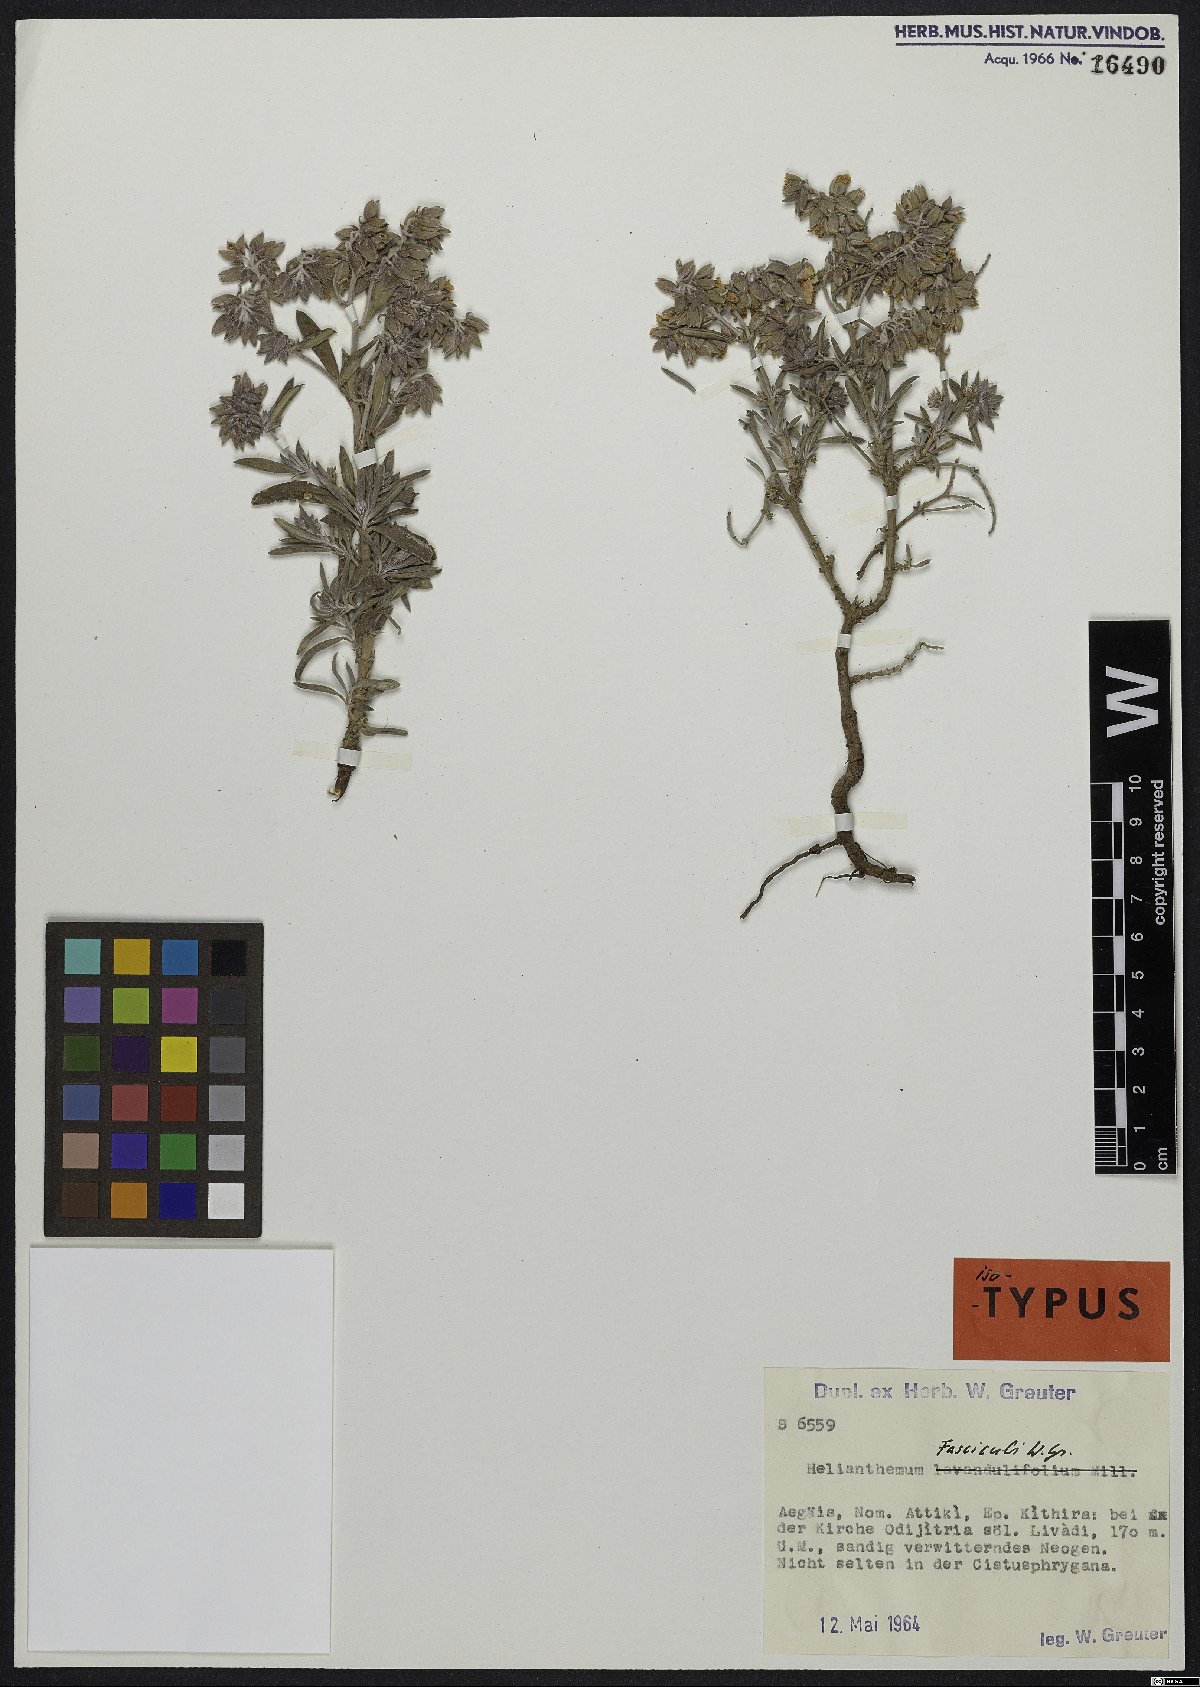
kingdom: Plantae
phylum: Tracheophyta
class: Magnoliopsida
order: Malvales
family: Cistaceae
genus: Helianthemum
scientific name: Helianthemum syriacum
